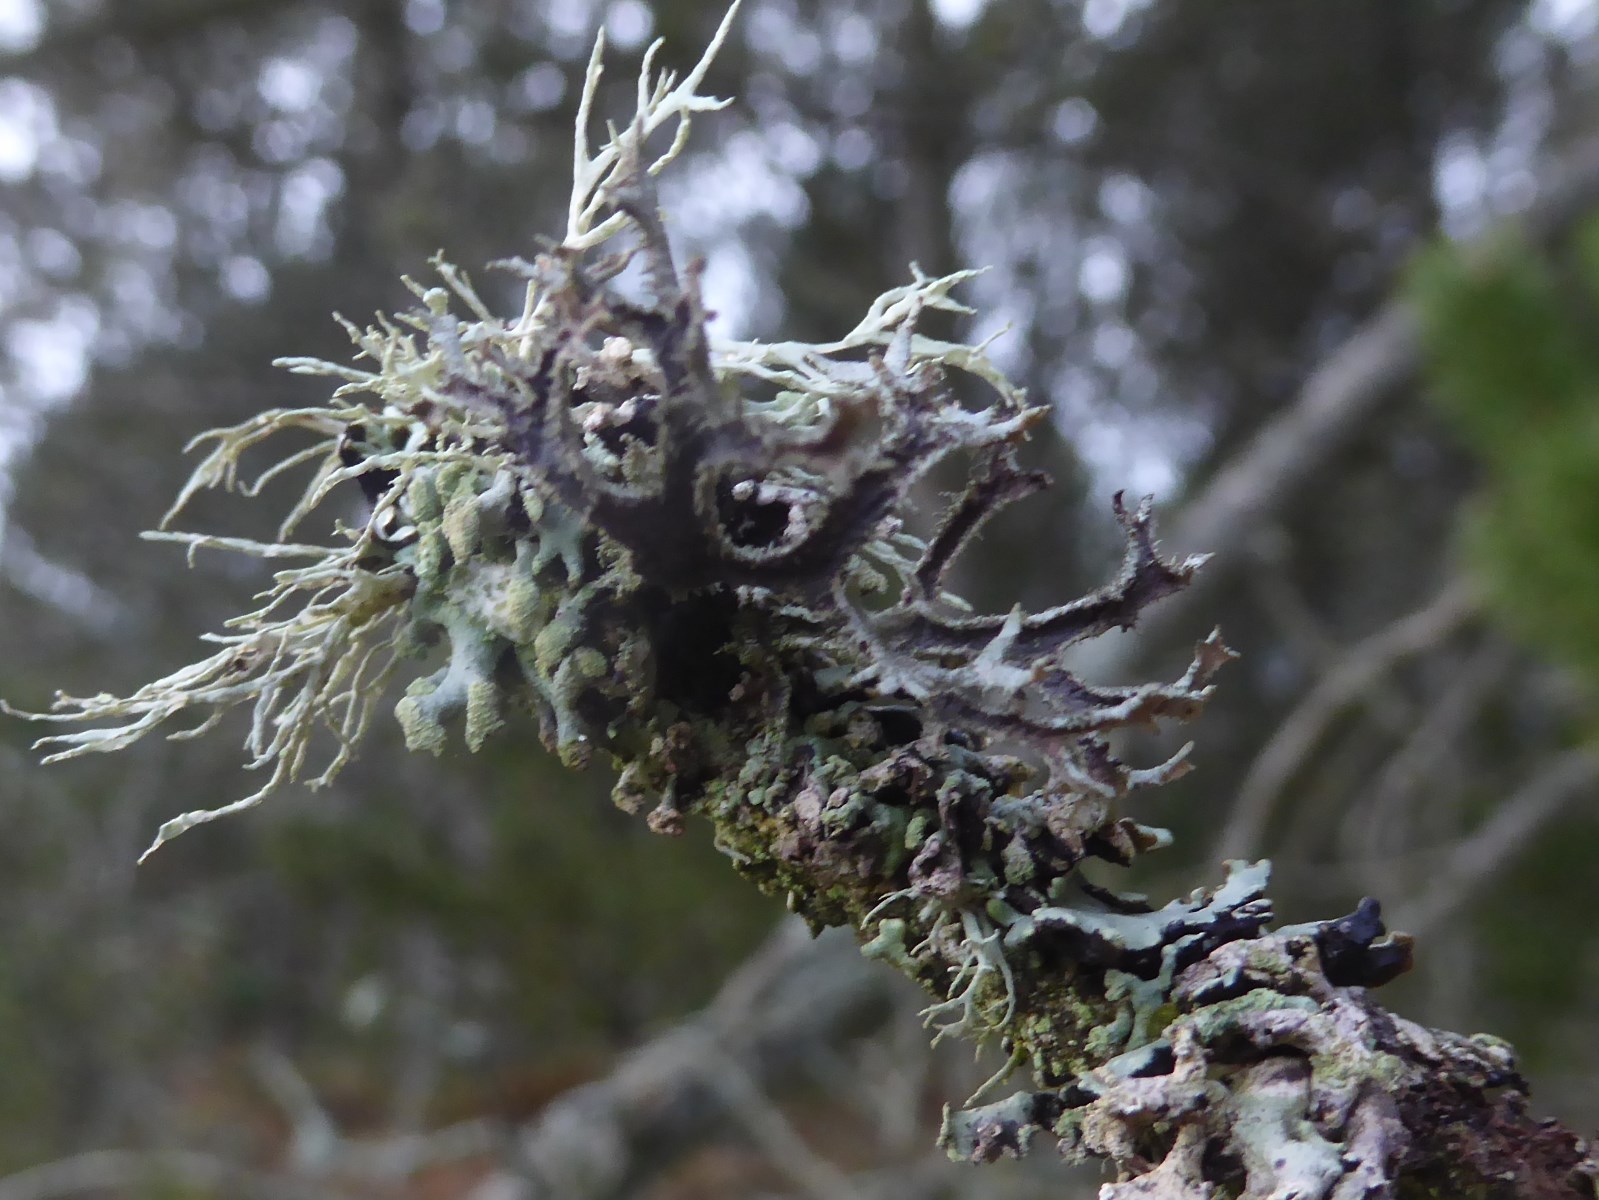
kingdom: Fungi
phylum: Ascomycota
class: Lecanoromycetes
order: Lecanorales
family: Parmeliaceae
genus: Pseudevernia
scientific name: Pseudevernia furfuracea
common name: grå fyrrelav
